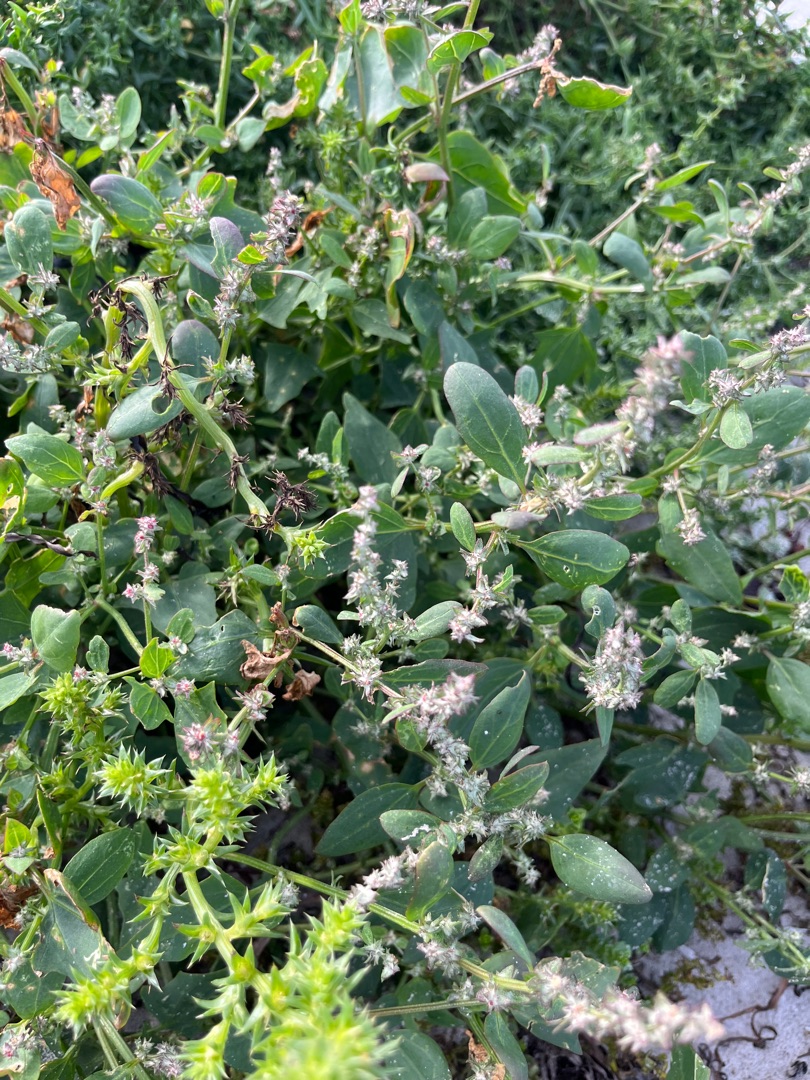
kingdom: Plantae
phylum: Tracheophyta
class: Magnoliopsida
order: Caryophyllales
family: Amaranthaceae
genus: Atriplex
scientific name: Atriplex prostrata
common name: Spyd-mælde
